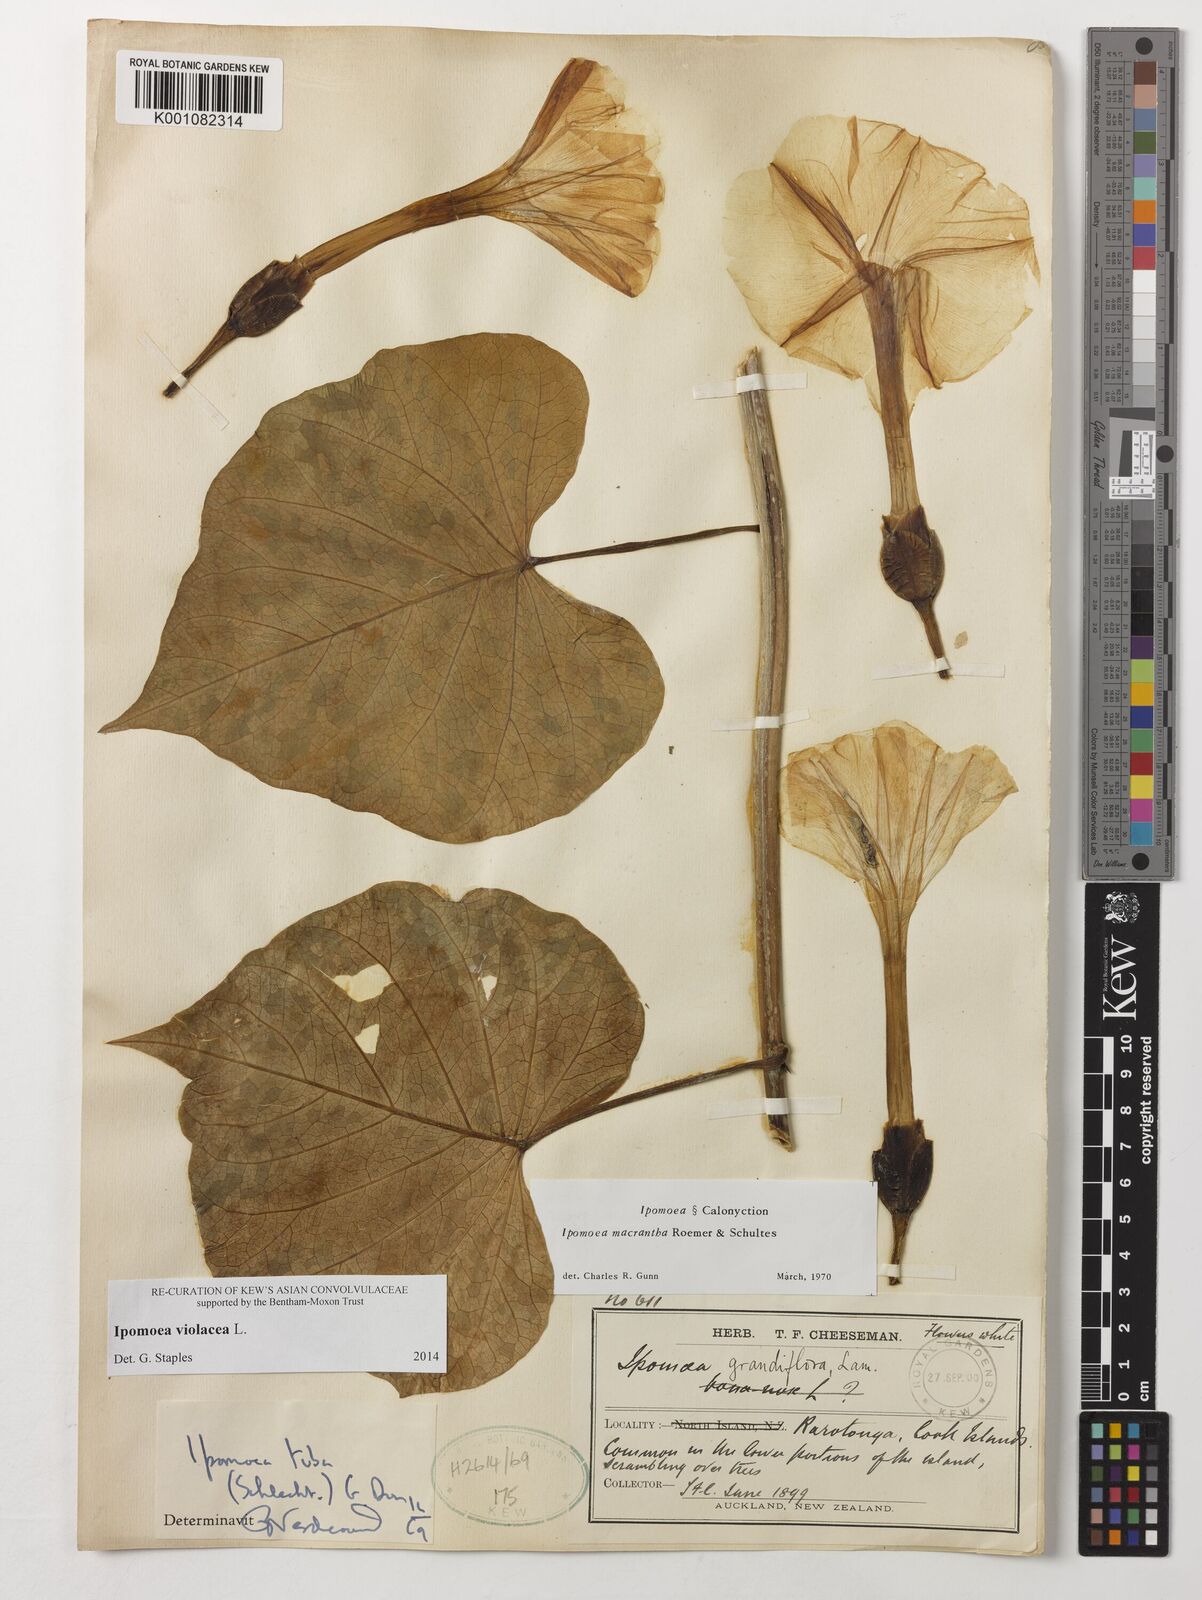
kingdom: Plantae
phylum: Tracheophyta
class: Magnoliopsida
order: Solanales
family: Convolvulaceae
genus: Ipomoea
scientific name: Ipomoea violacea
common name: Beach moonflower
